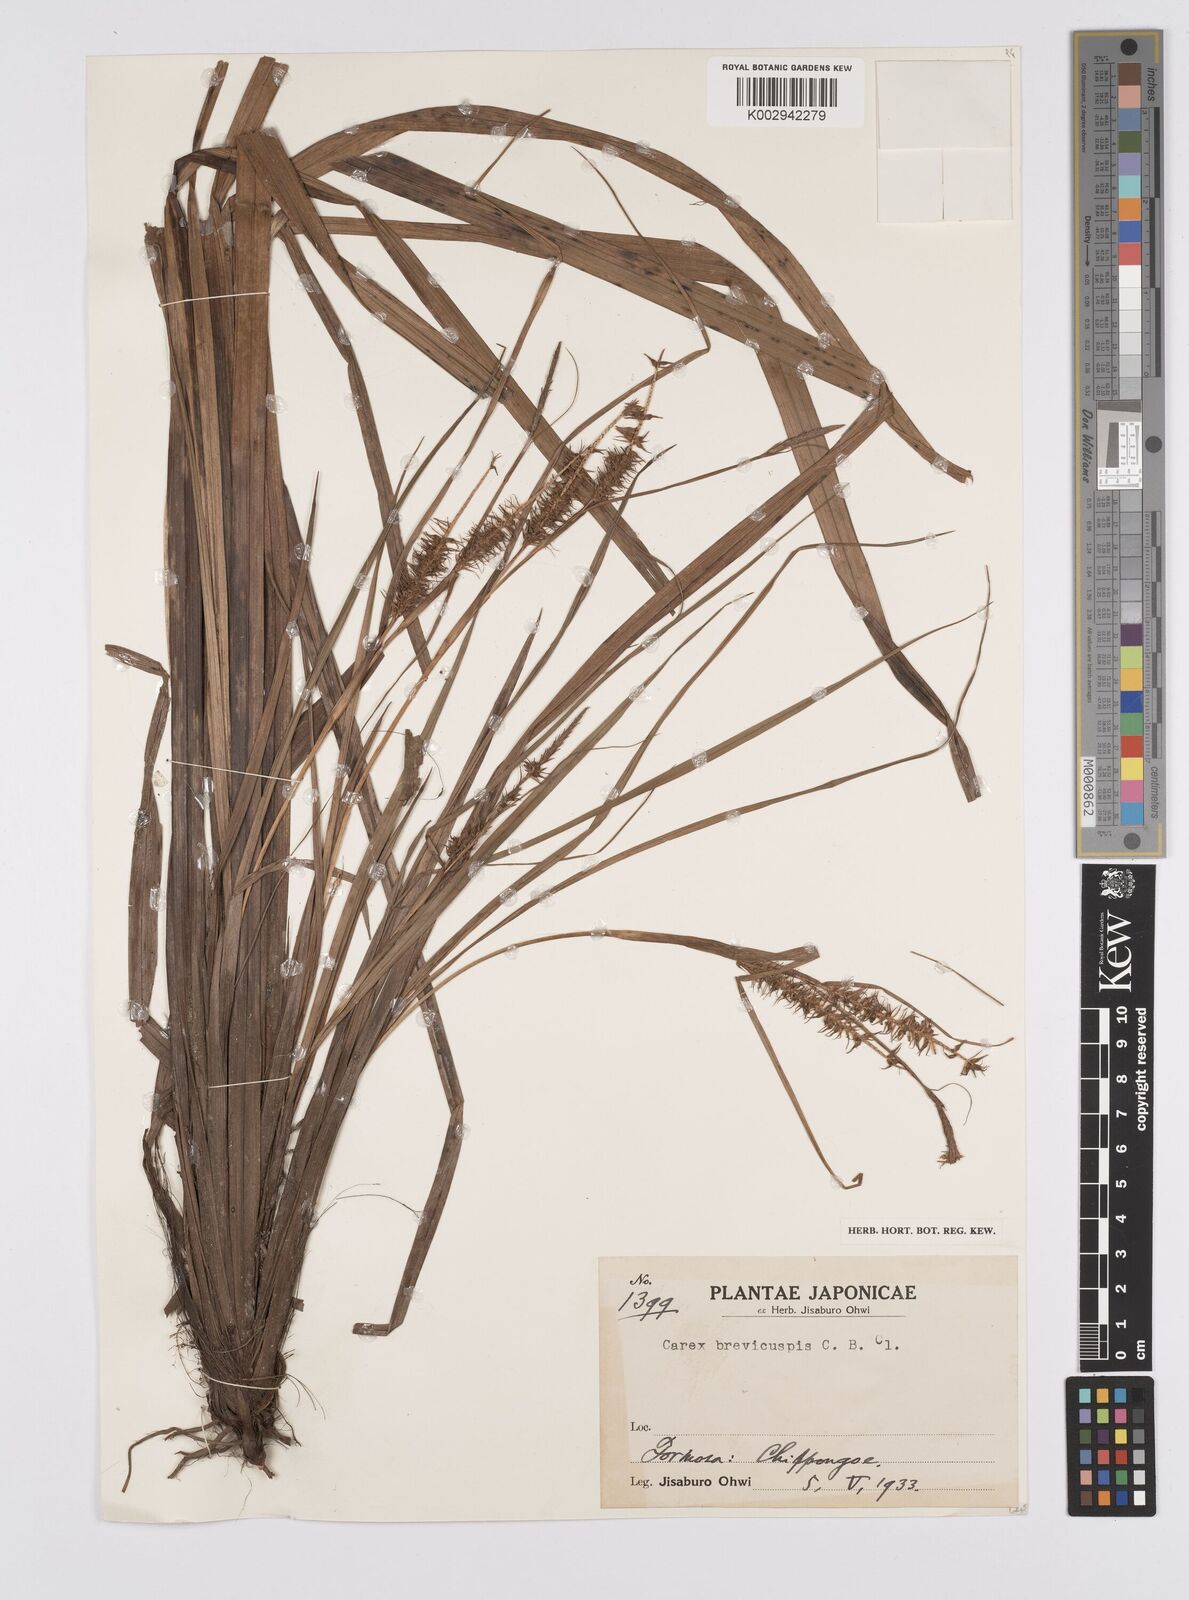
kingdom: Plantae
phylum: Tracheophyta
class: Liliopsida
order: Poales
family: Cyperaceae
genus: Carex
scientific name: Carex brevicuspis
